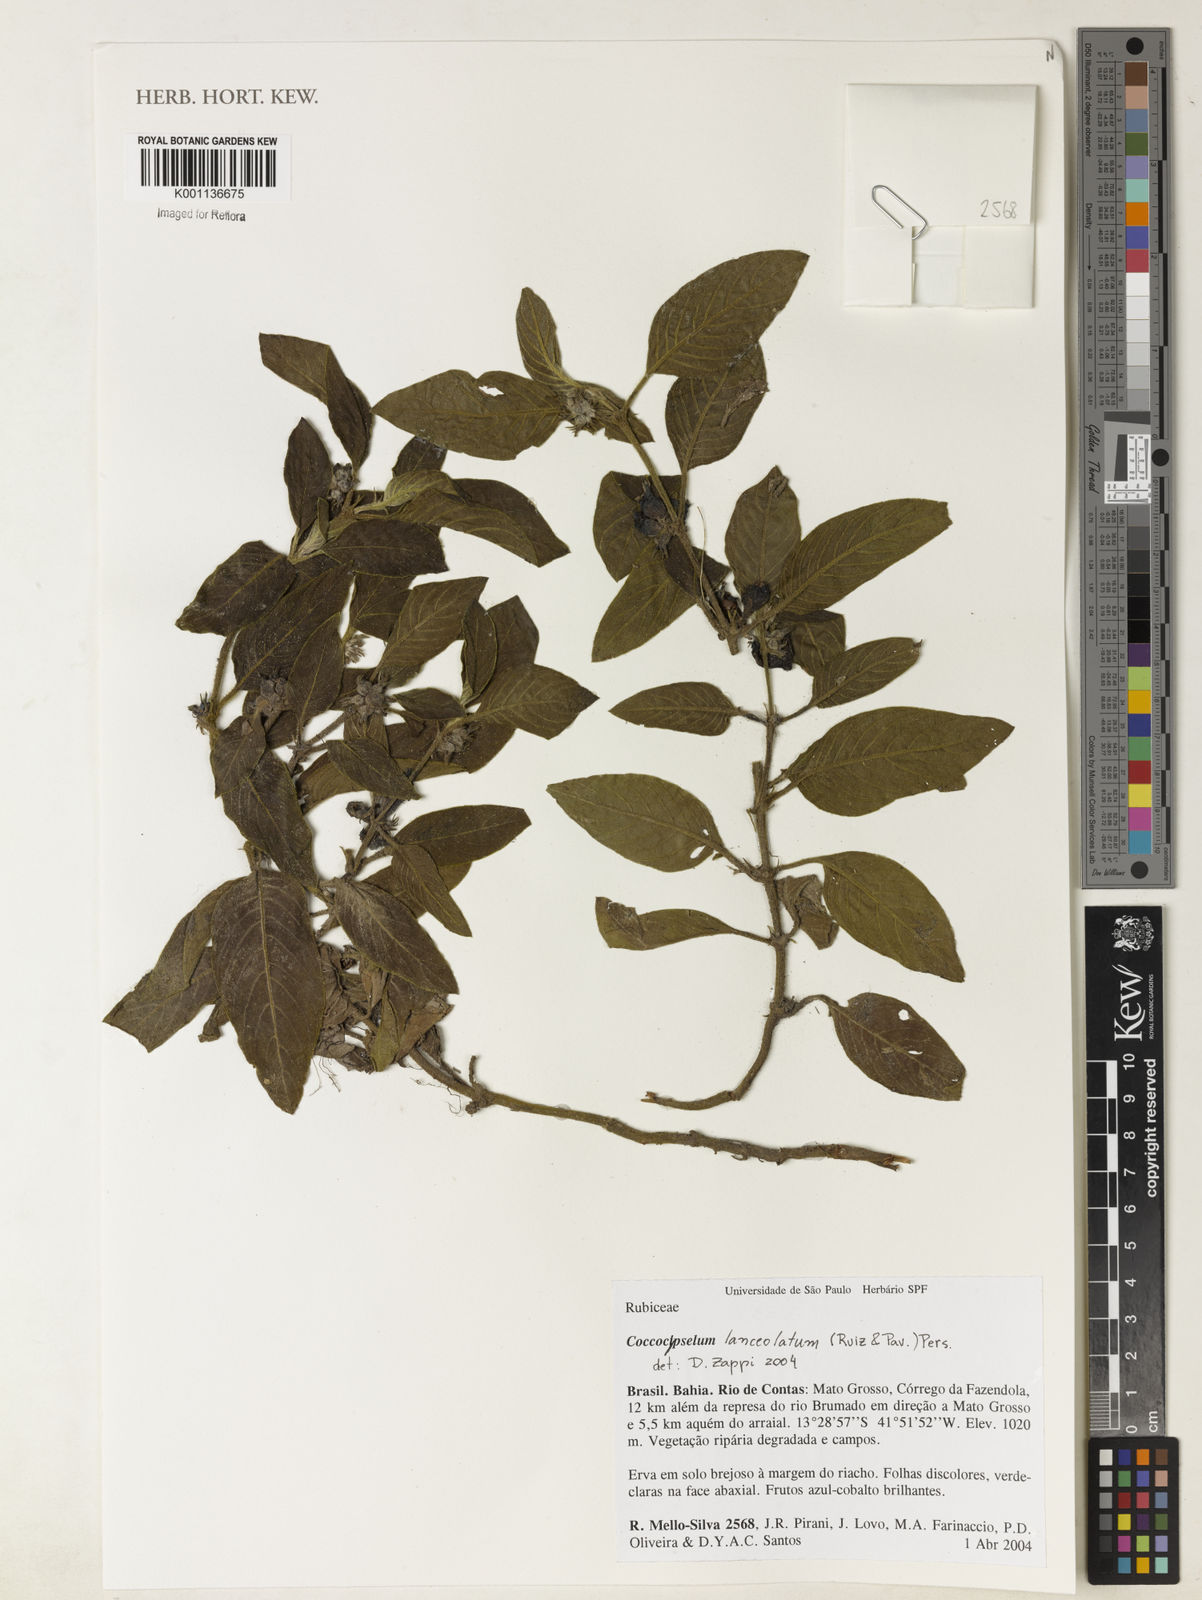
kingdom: Plantae
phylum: Tracheophyta
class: Magnoliopsida
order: Gentianales
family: Rubiaceae
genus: Coccocypselum
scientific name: Coccocypselum lanceolatum
